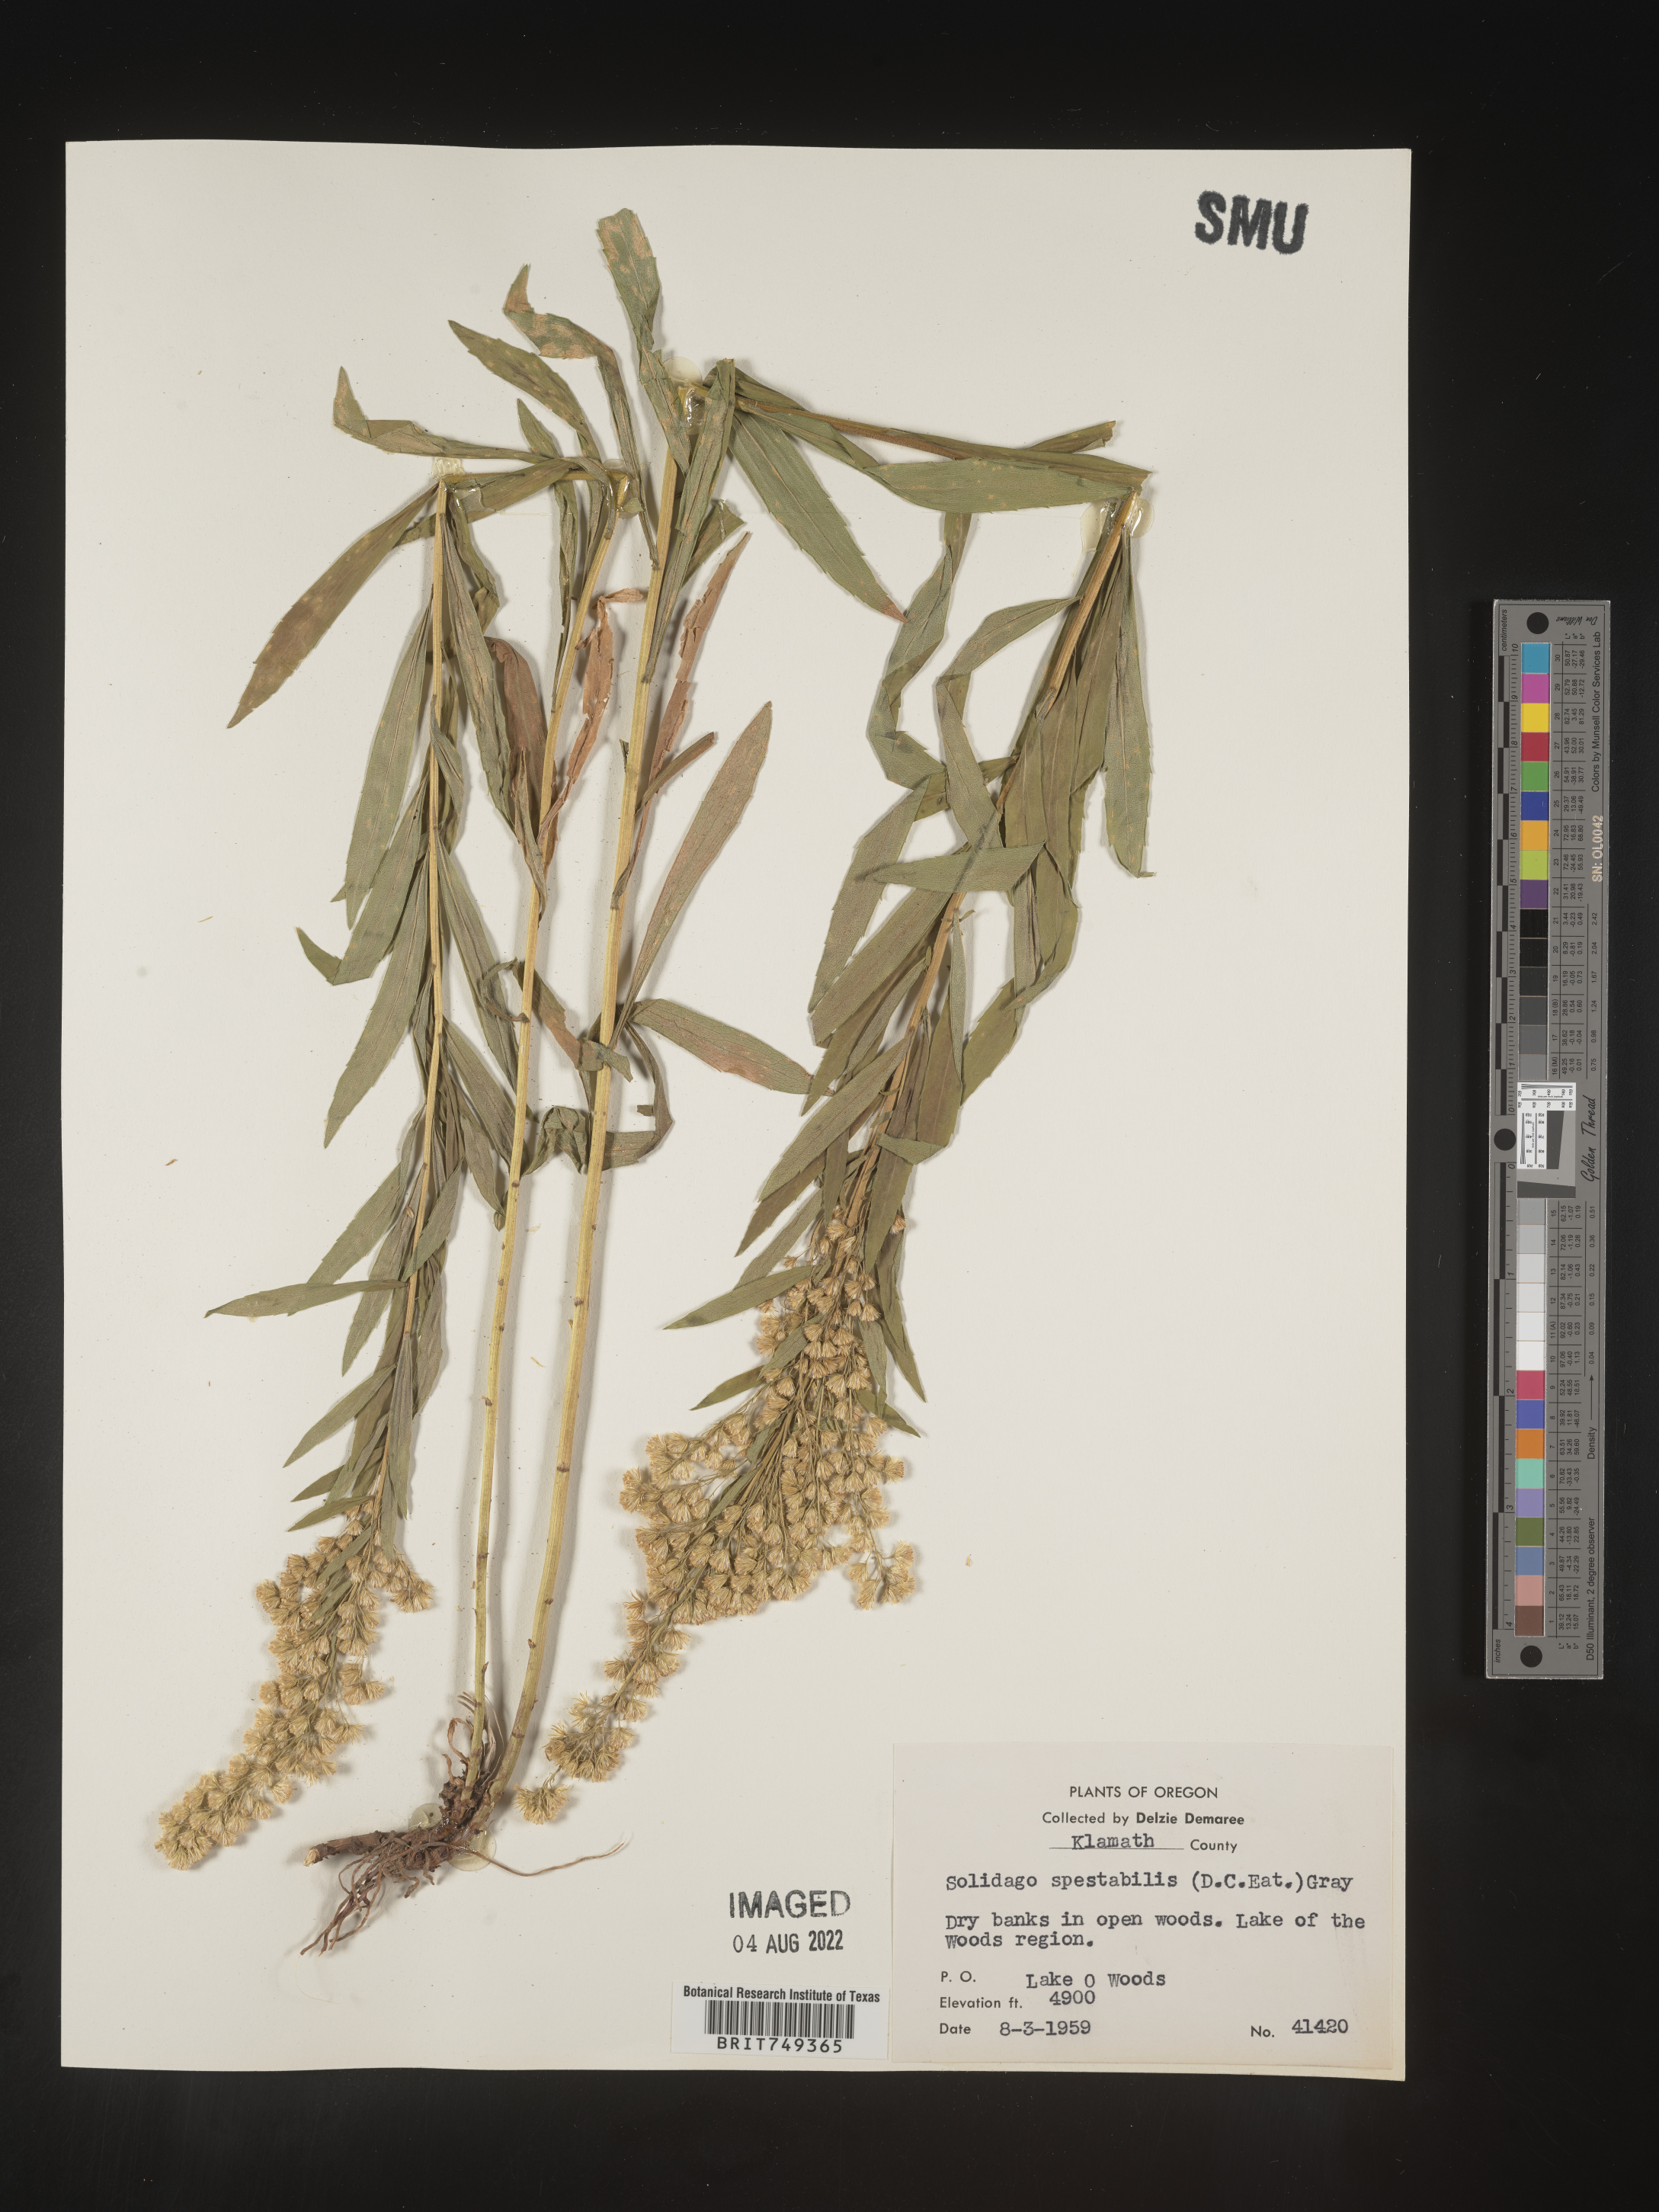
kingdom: Plantae
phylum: Tracheophyta
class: Magnoliopsida
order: Asterales
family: Asteraceae
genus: Solidago
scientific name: Solidago spectabilis
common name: Basin goldenrod
